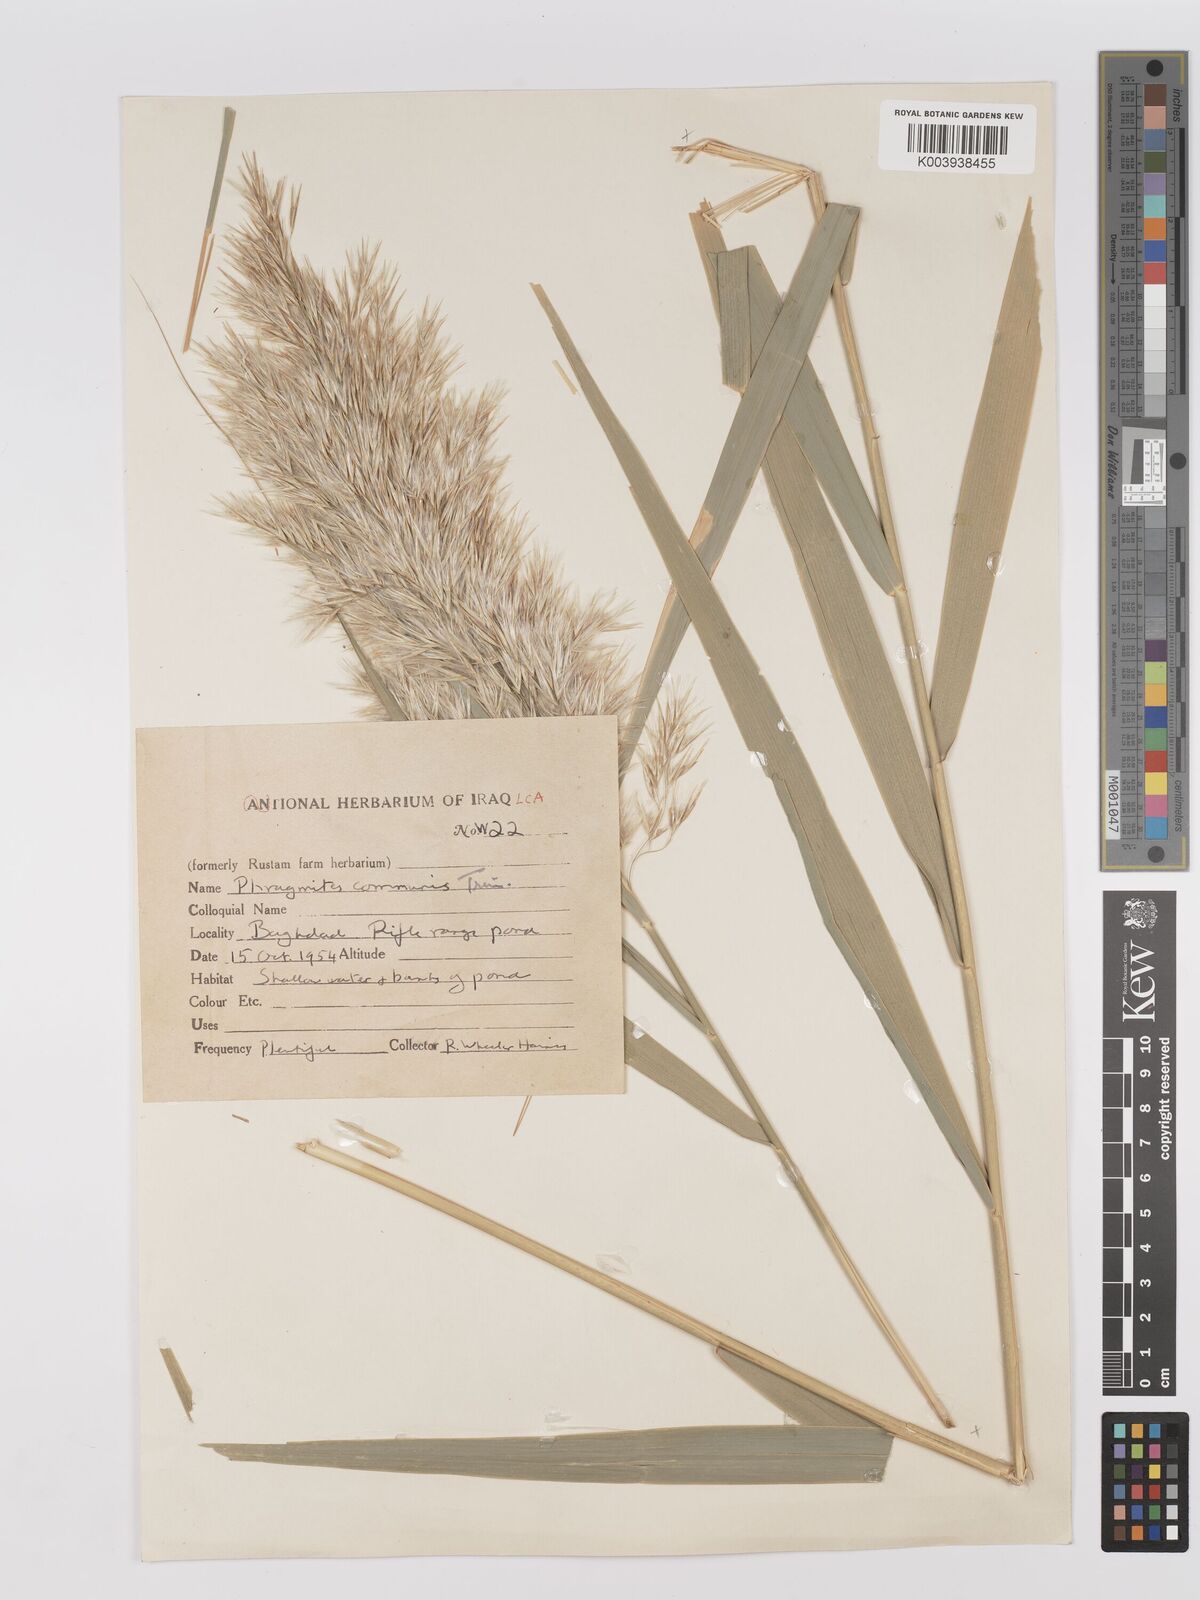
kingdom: Plantae
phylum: Tracheophyta
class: Liliopsida
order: Poales
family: Poaceae
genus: Phragmites
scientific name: Phragmites australis
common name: Common reed
